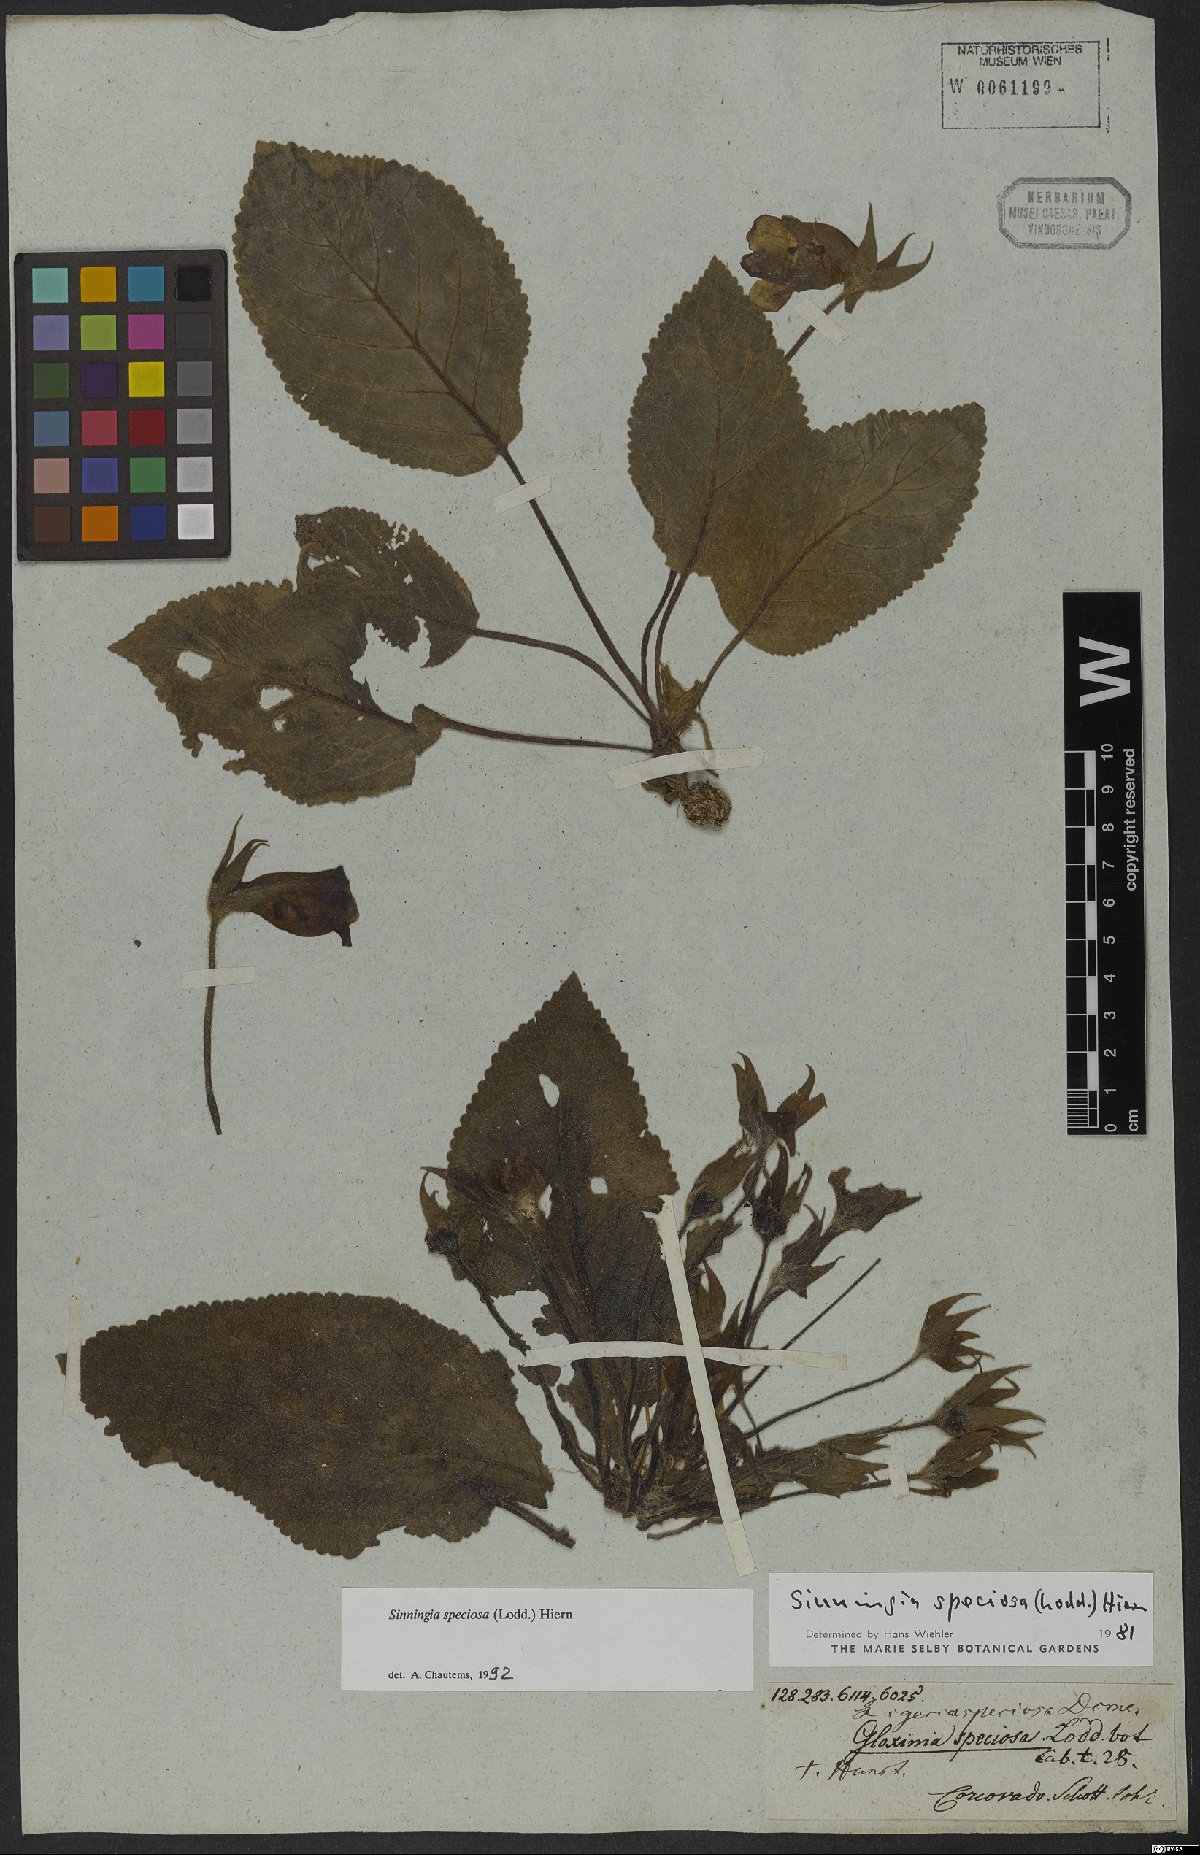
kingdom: Plantae
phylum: Tracheophyta
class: Magnoliopsida
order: Lamiales
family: Gesneriaceae
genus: Sinningia
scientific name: Sinningia speciosa
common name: Brazilian gloxinia
